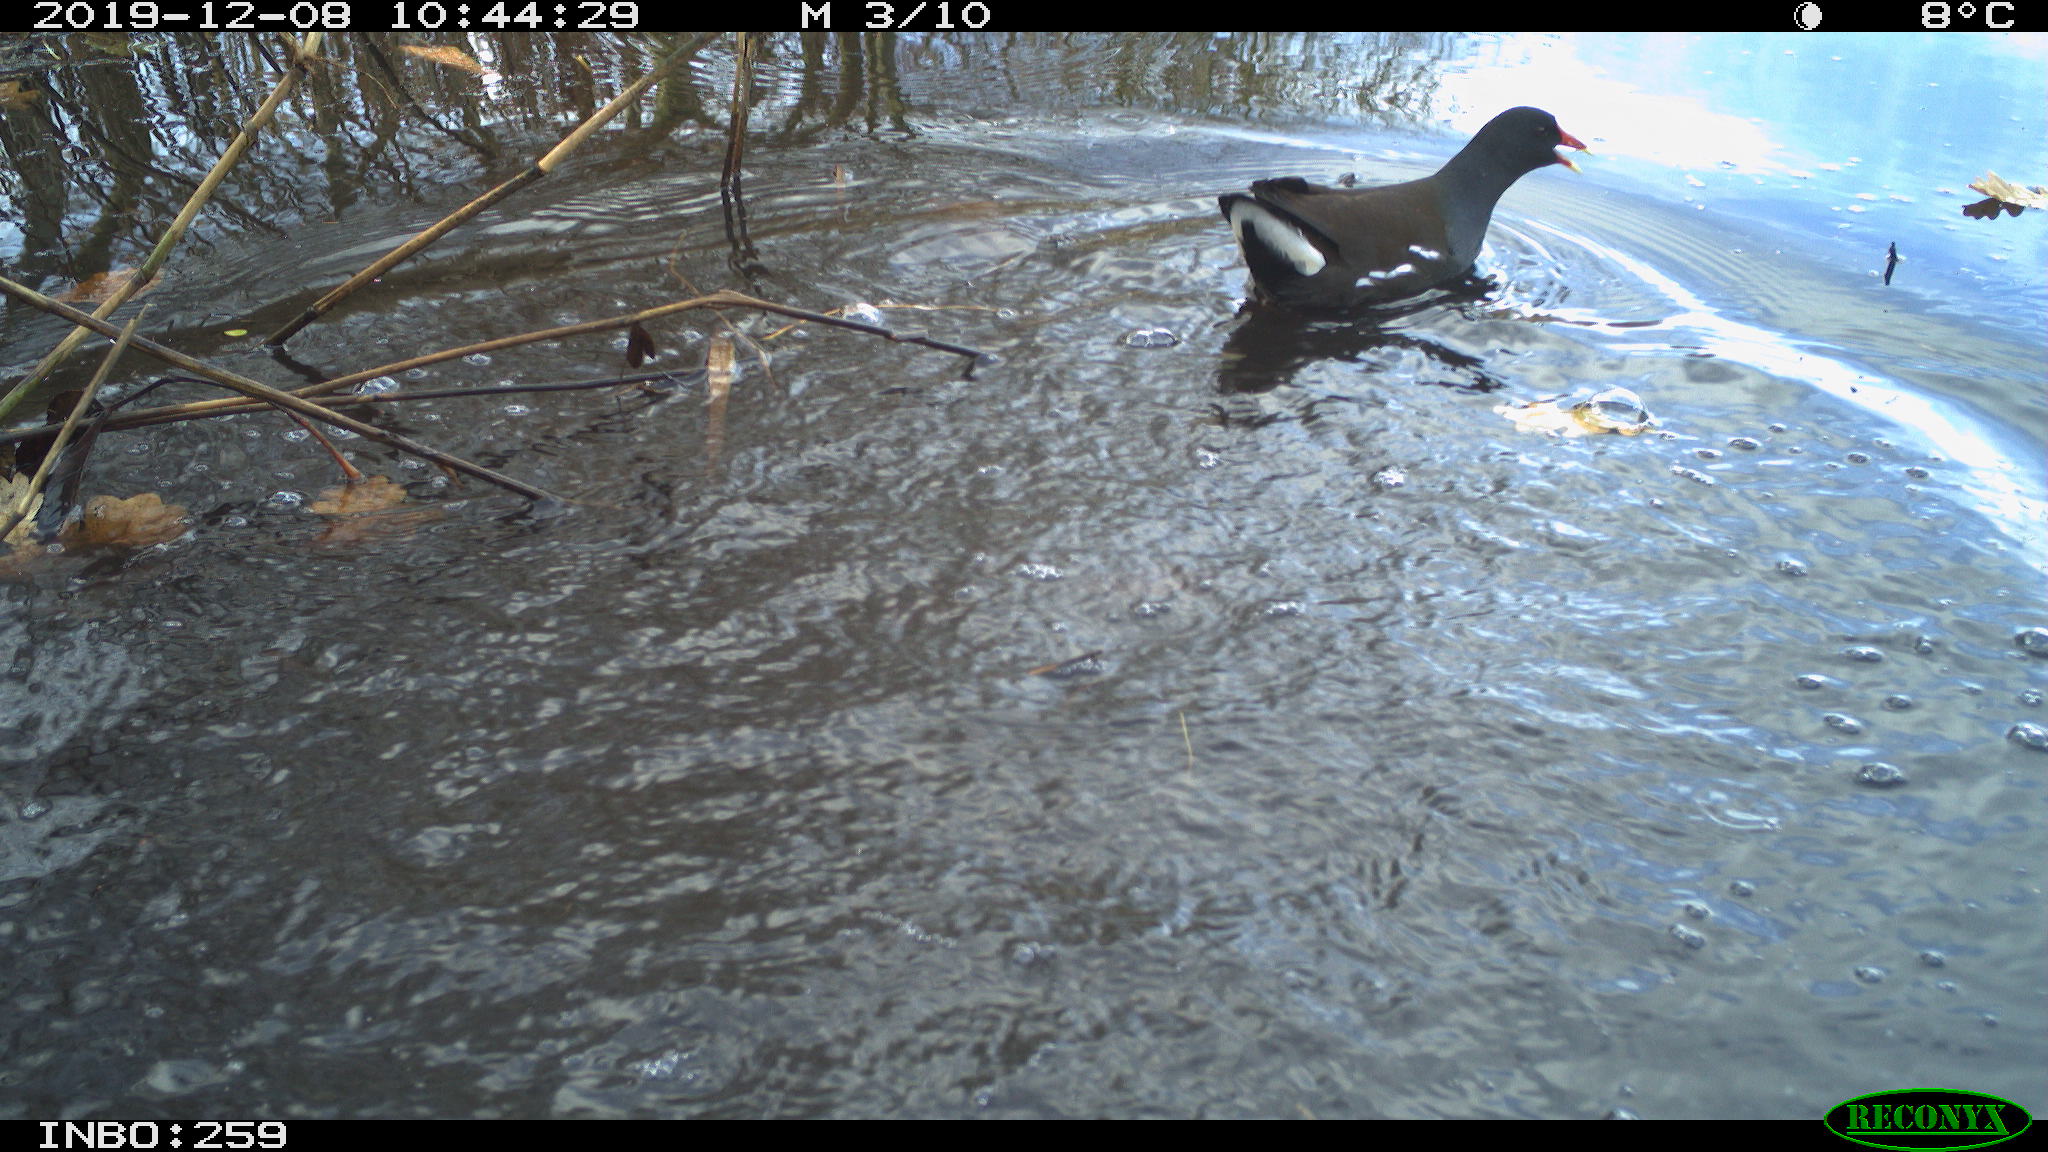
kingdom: Animalia
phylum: Chordata
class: Aves
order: Gruiformes
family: Rallidae
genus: Gallinula
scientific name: Gallinula chloropus
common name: Common moorhen
